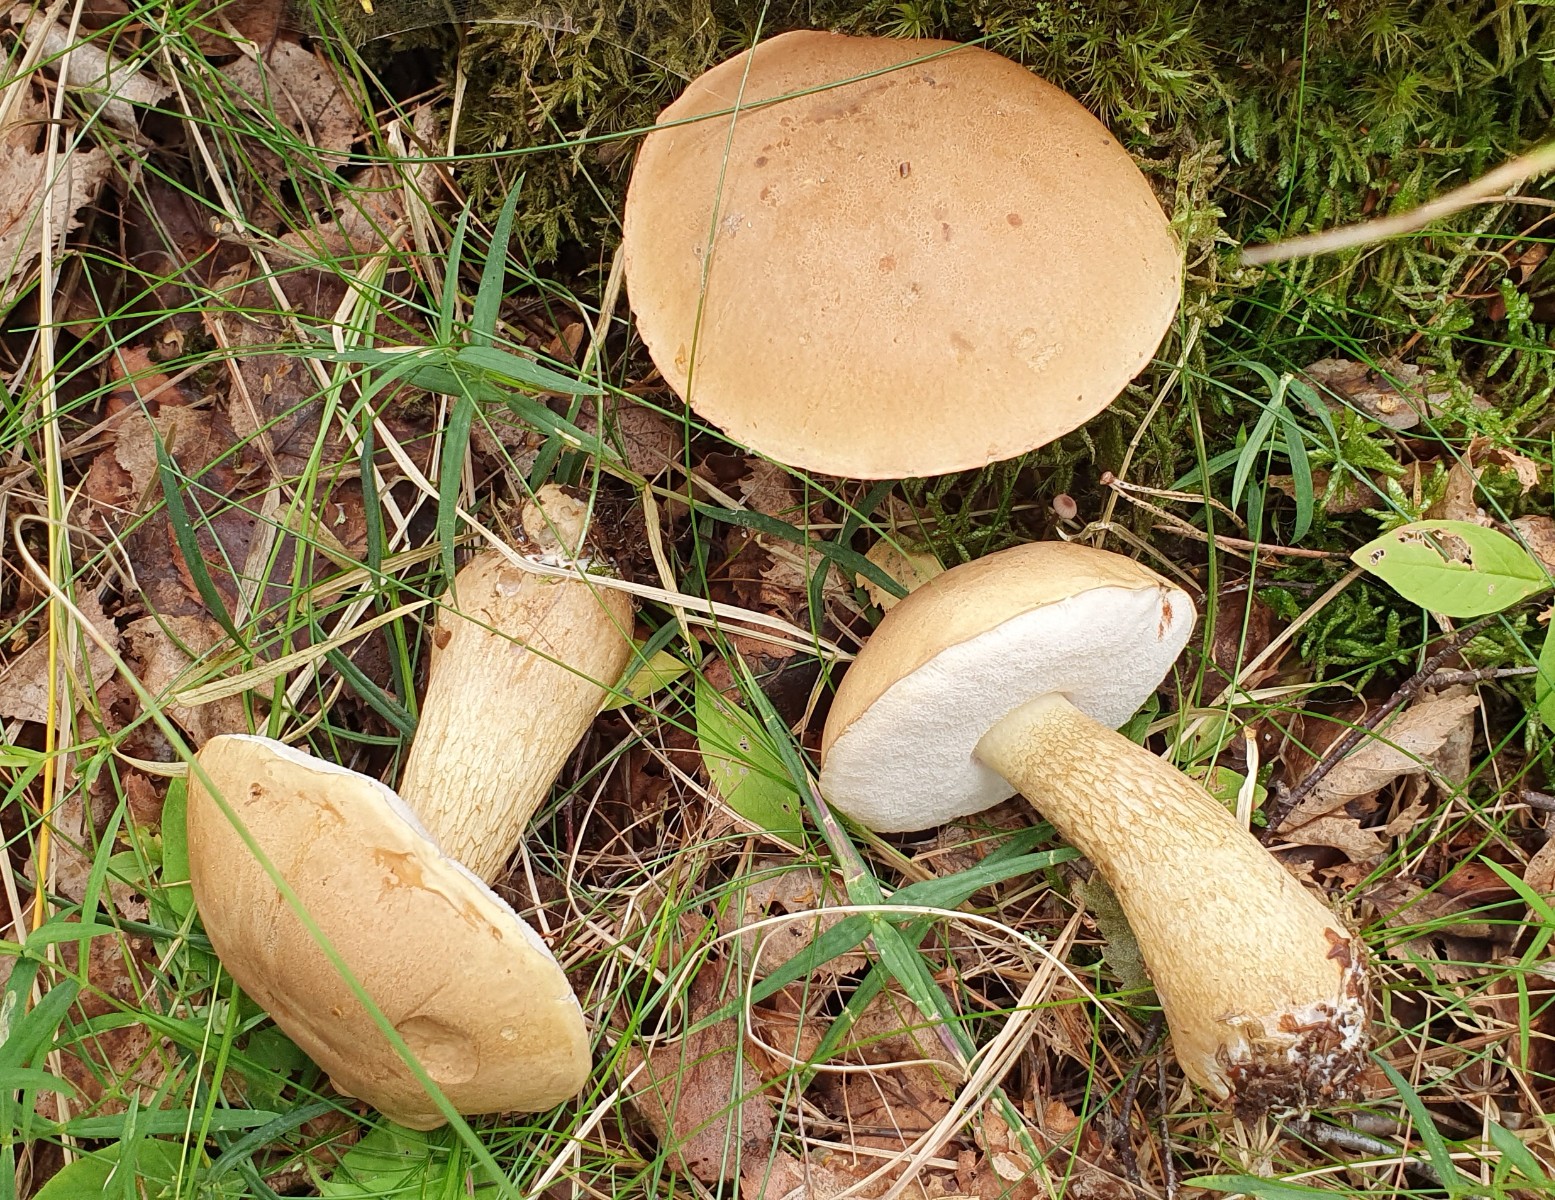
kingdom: Fungi
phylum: Basidiomycota
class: Agaricomycetes
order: Boletales
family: Boletaceae
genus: Tylopilus
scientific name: Tylopilus felleus
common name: galderørhat
